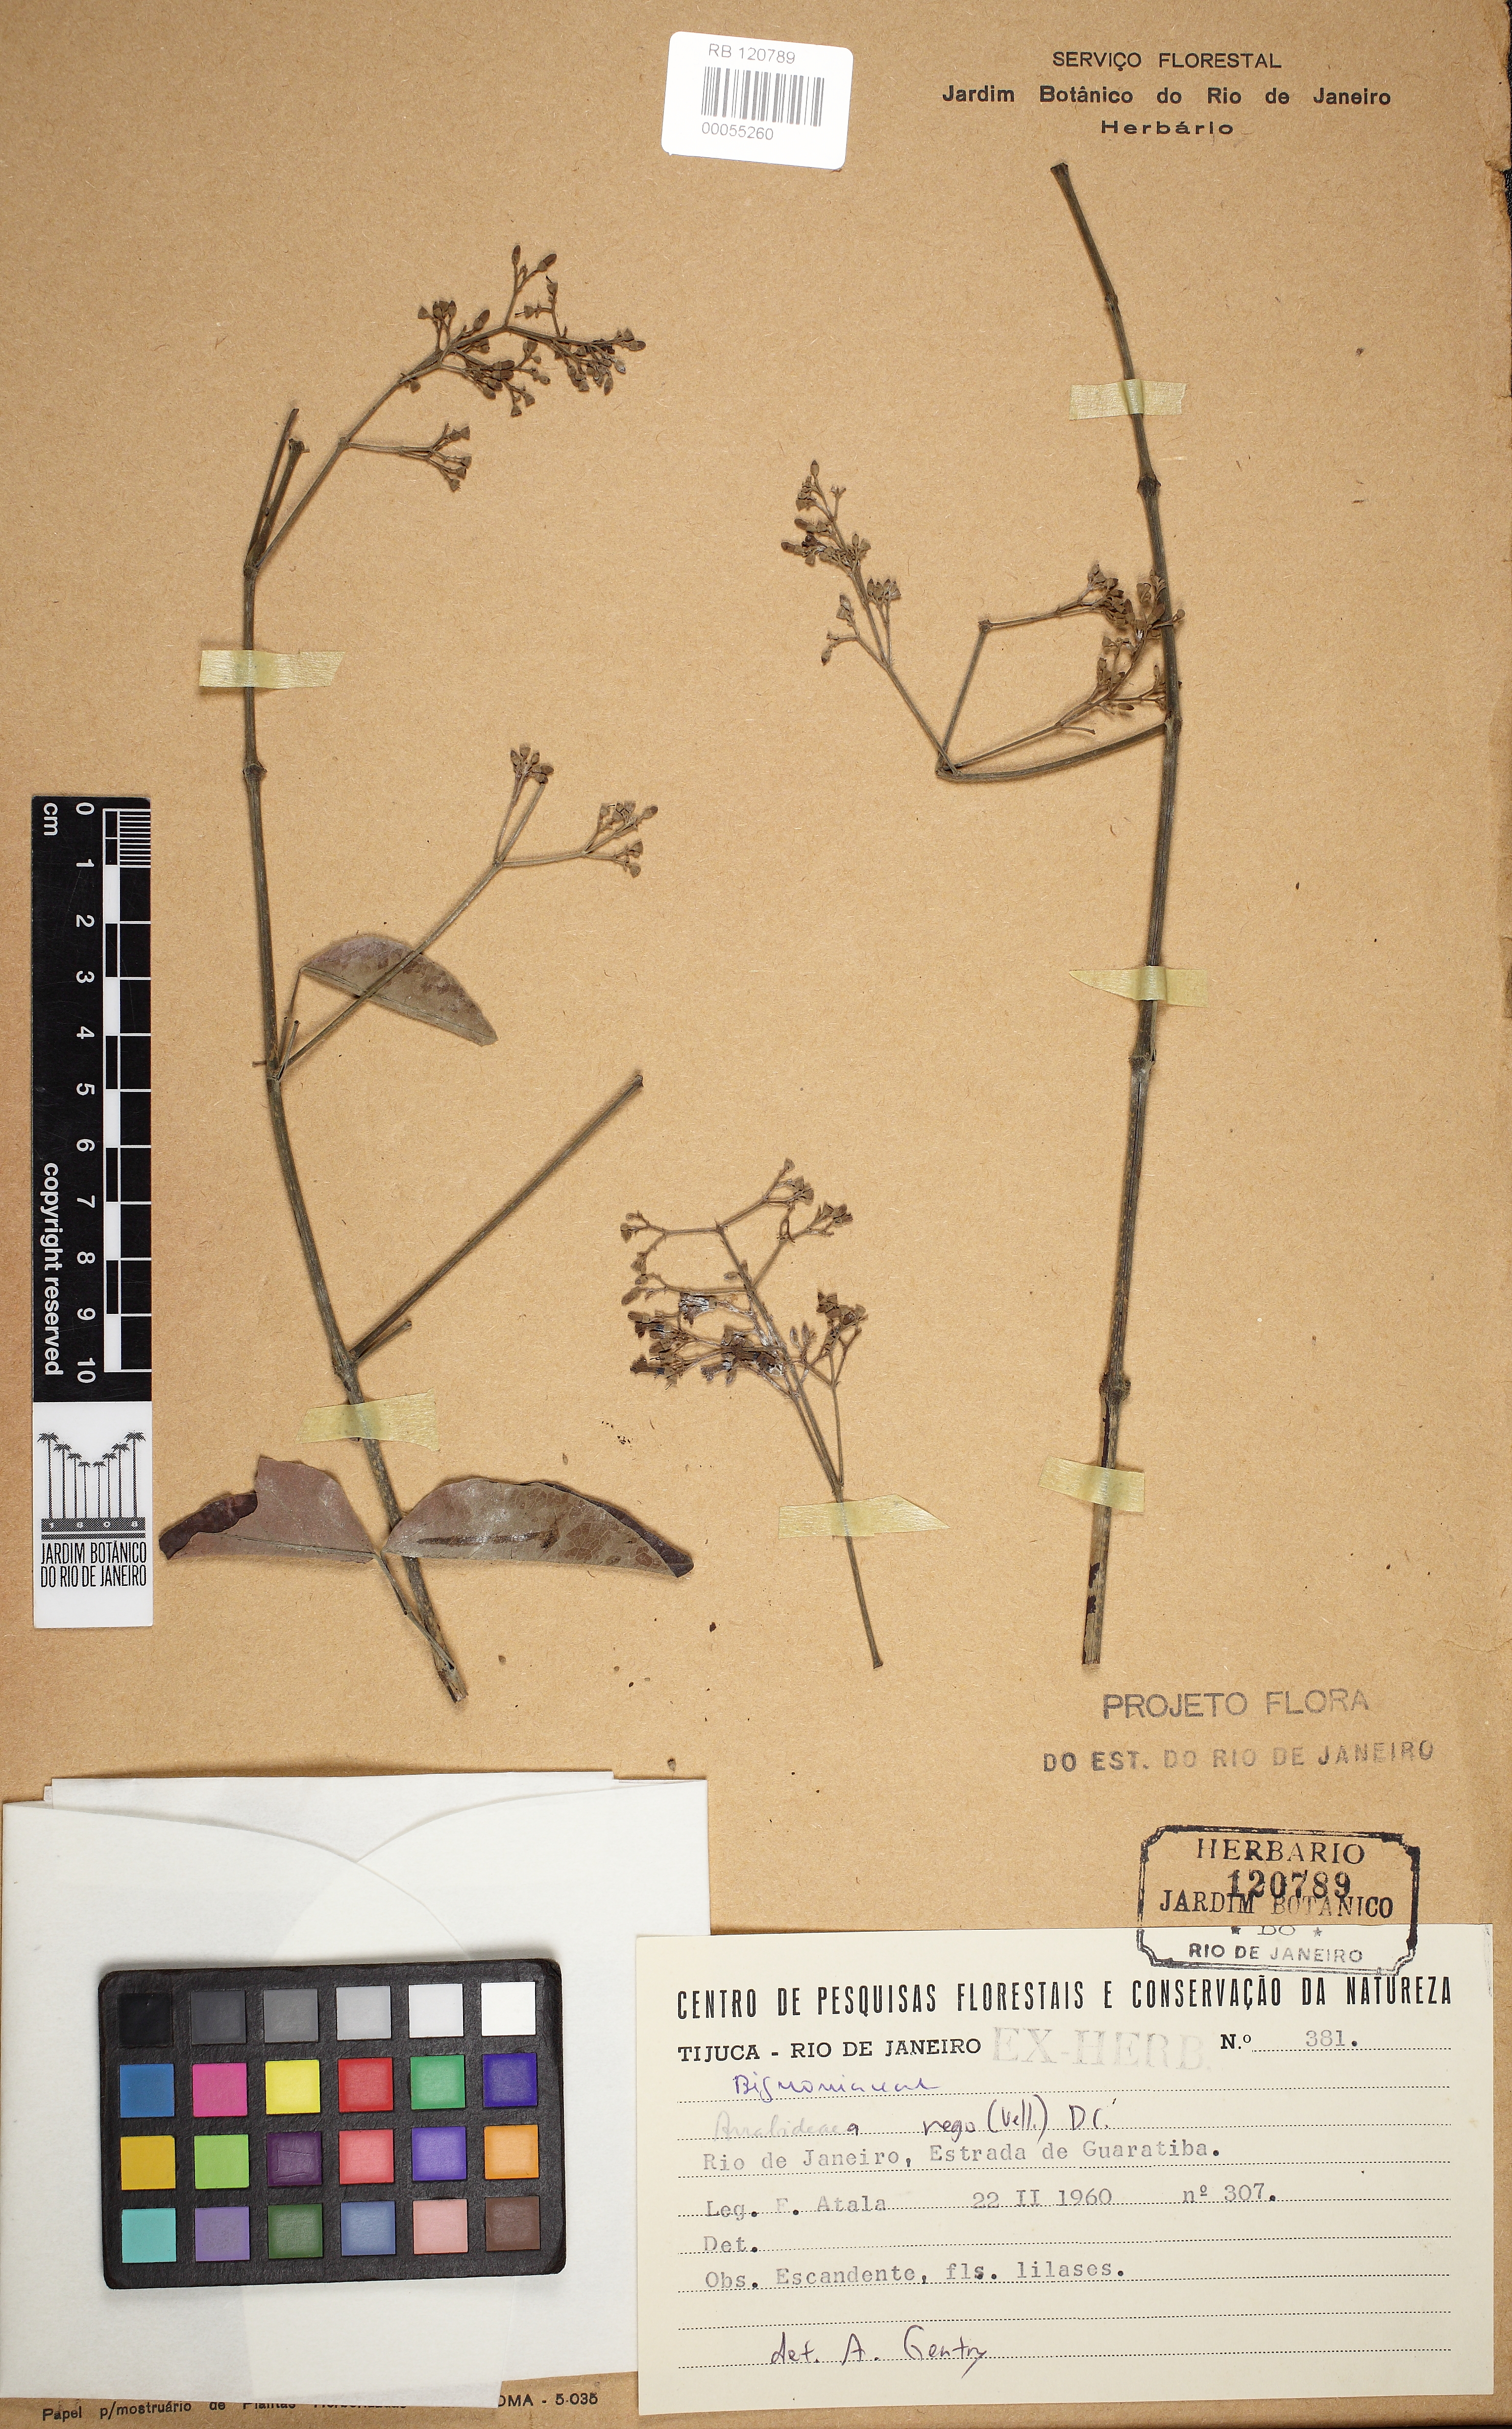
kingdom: Plantae
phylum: Tracheophyta
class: Magnoliopsida
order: Lamiales
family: Bignoniaceae
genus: Fridericia
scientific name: Fridericia rego
